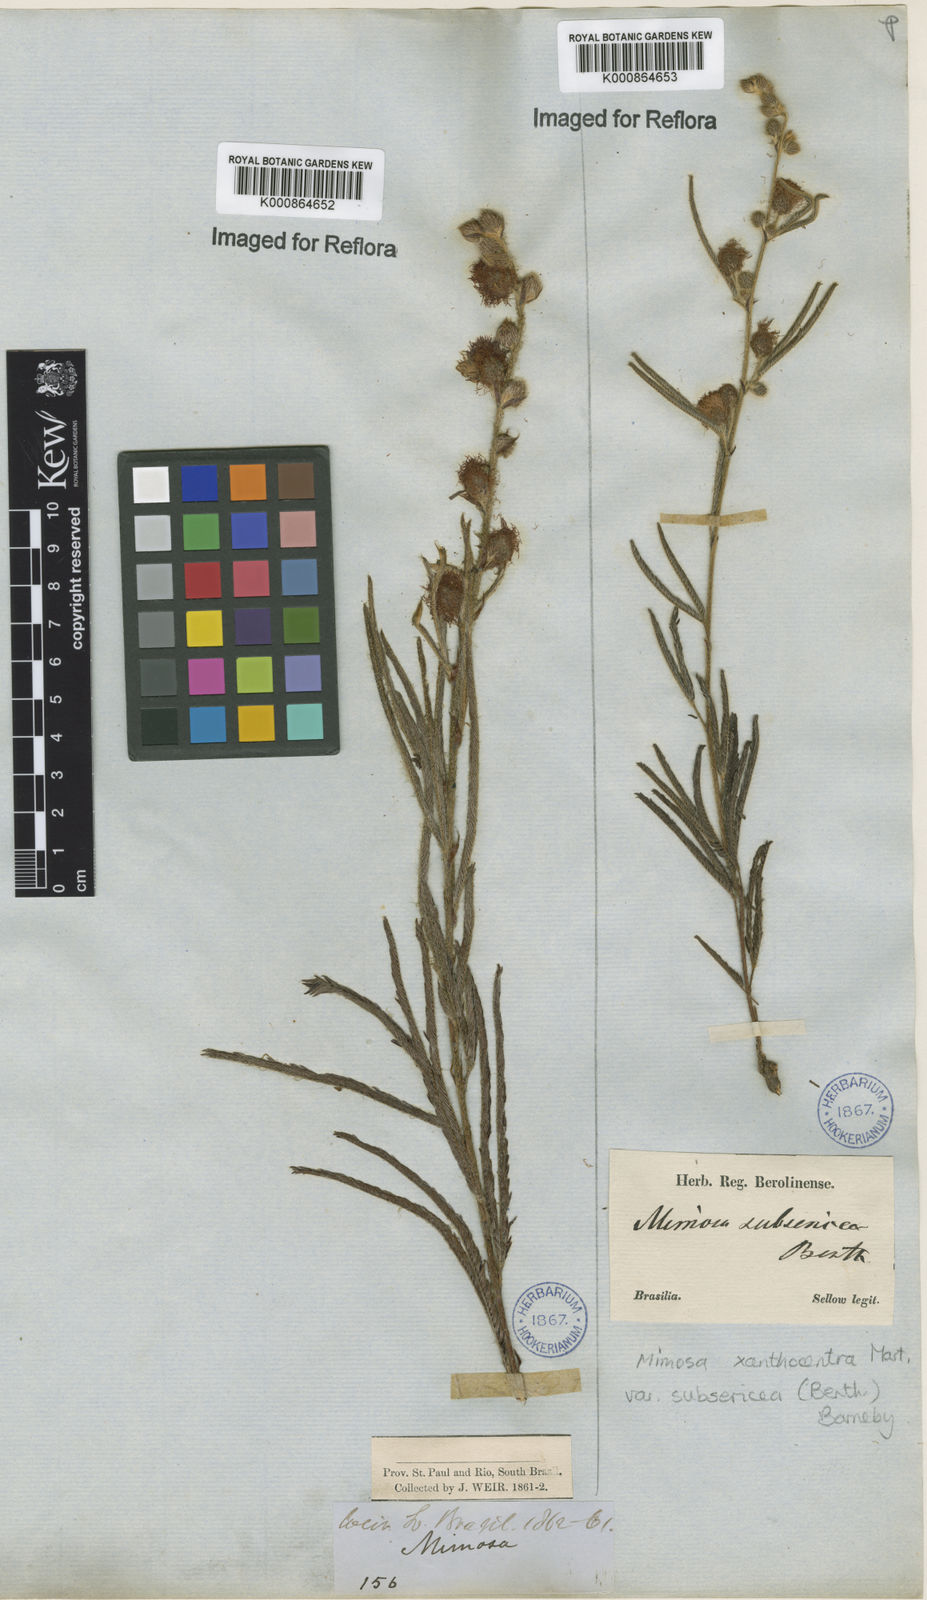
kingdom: Plantae
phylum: Tracheophyta
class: Magnoliopsida
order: Fabales
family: Fabaceae
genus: Mimosa
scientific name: Mimosa xanthocentra
